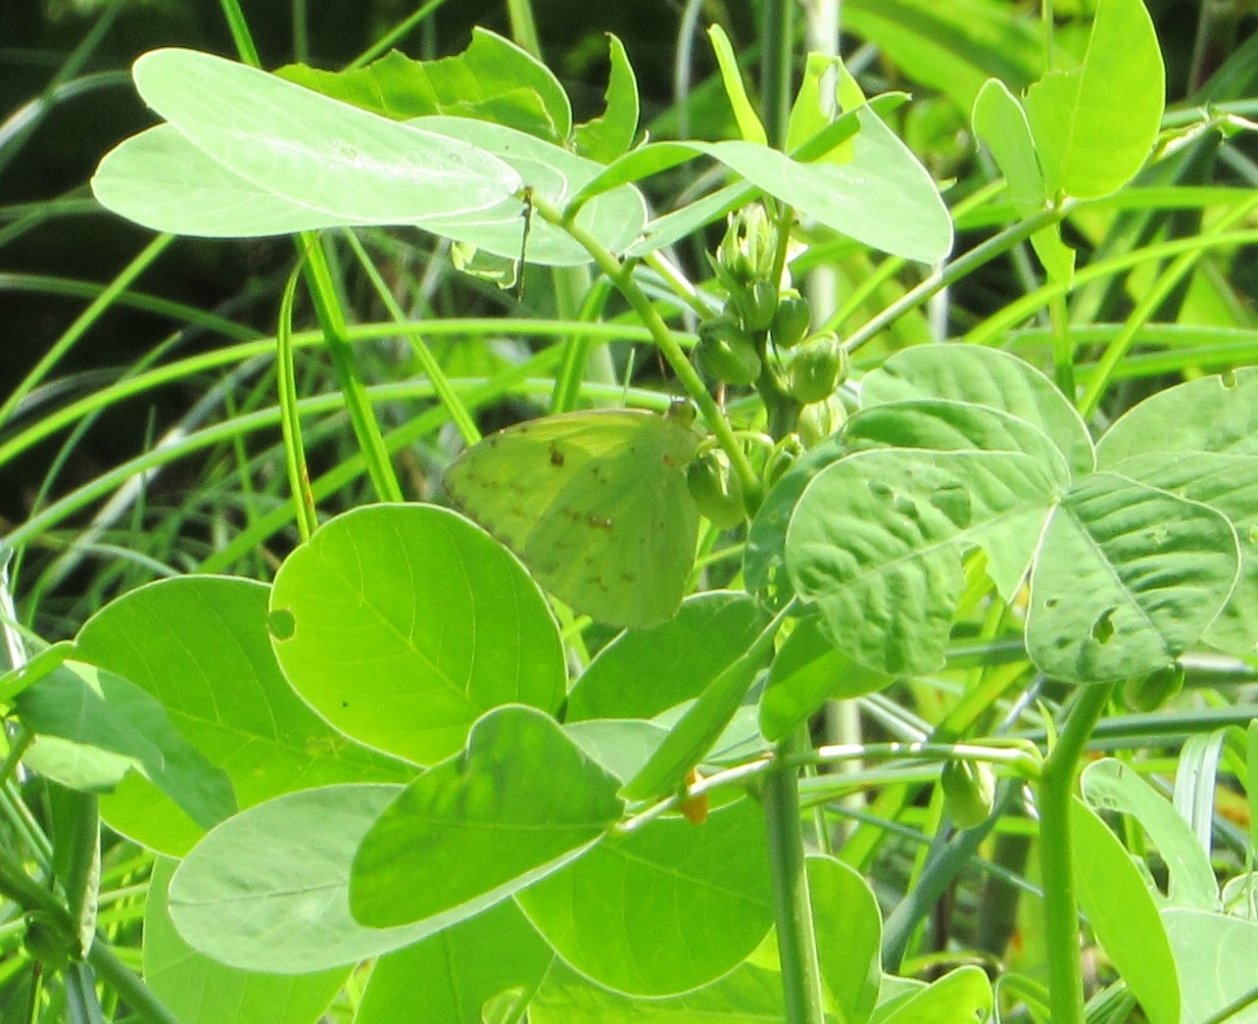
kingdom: Animalia
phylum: Arthropoda
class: Insecta
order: Lepidoptera
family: Pieridae
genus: Phoebis
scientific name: Phoebis sennae
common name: Cloudless Sulphur
